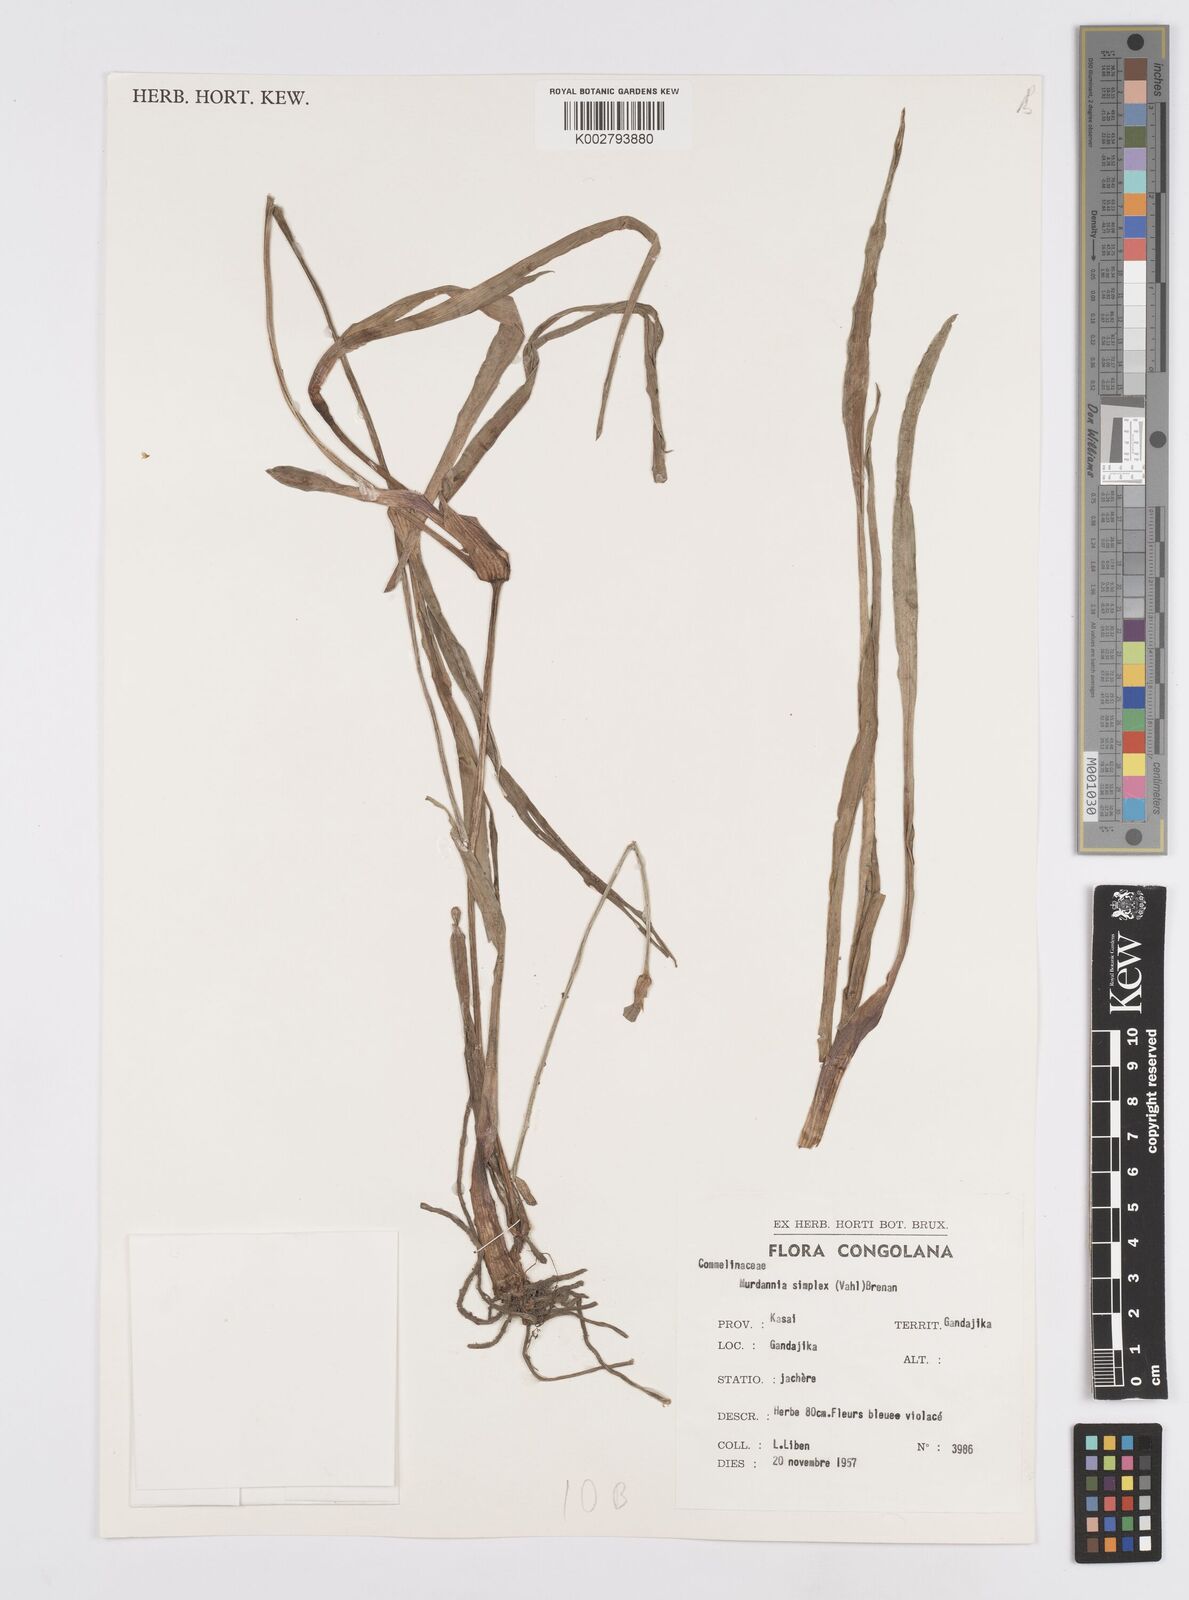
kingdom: Plantae
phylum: Tracheophyta
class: Liliopsida
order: Commelinales
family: Commelinaceae
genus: Murdannia
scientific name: Murdannia simplex
